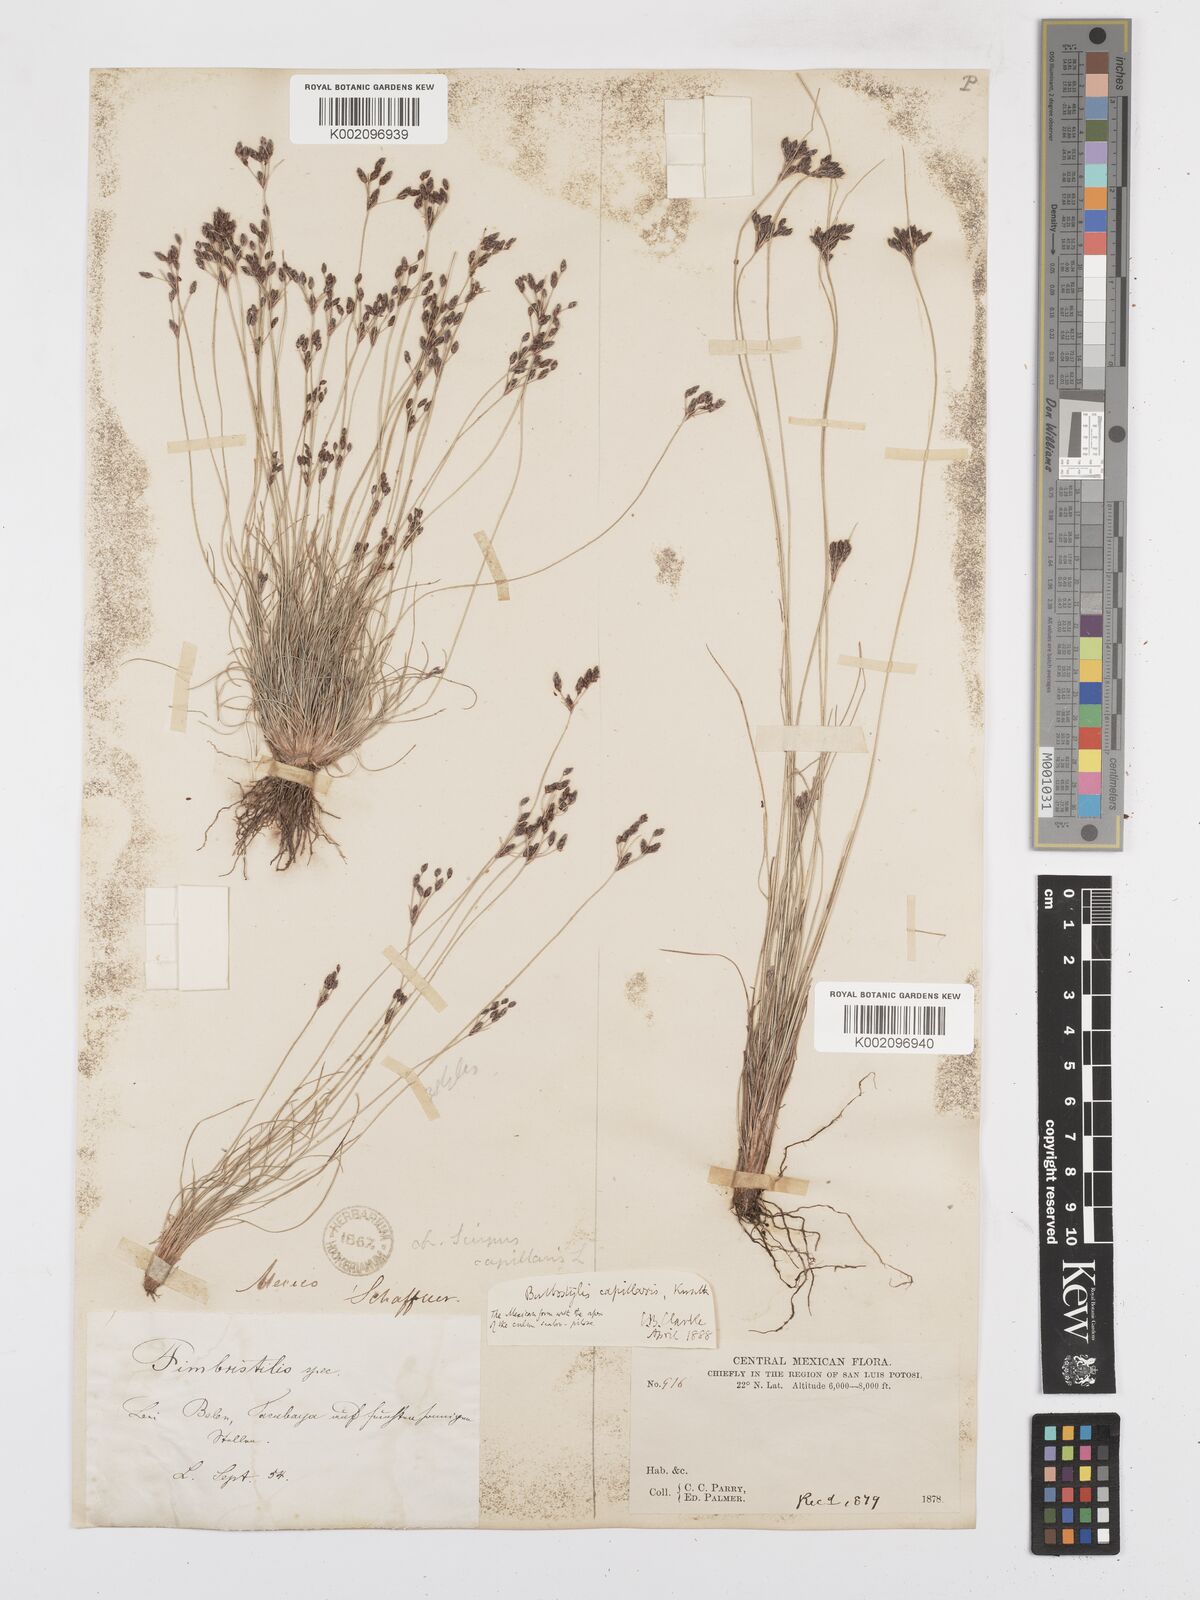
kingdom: Plantae
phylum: Tracheophyta
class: Liliopsida
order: Poales
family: Cyperaceae
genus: Bulbostylis
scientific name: Bulbostylis capillaris
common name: Densetuft hairsedge
